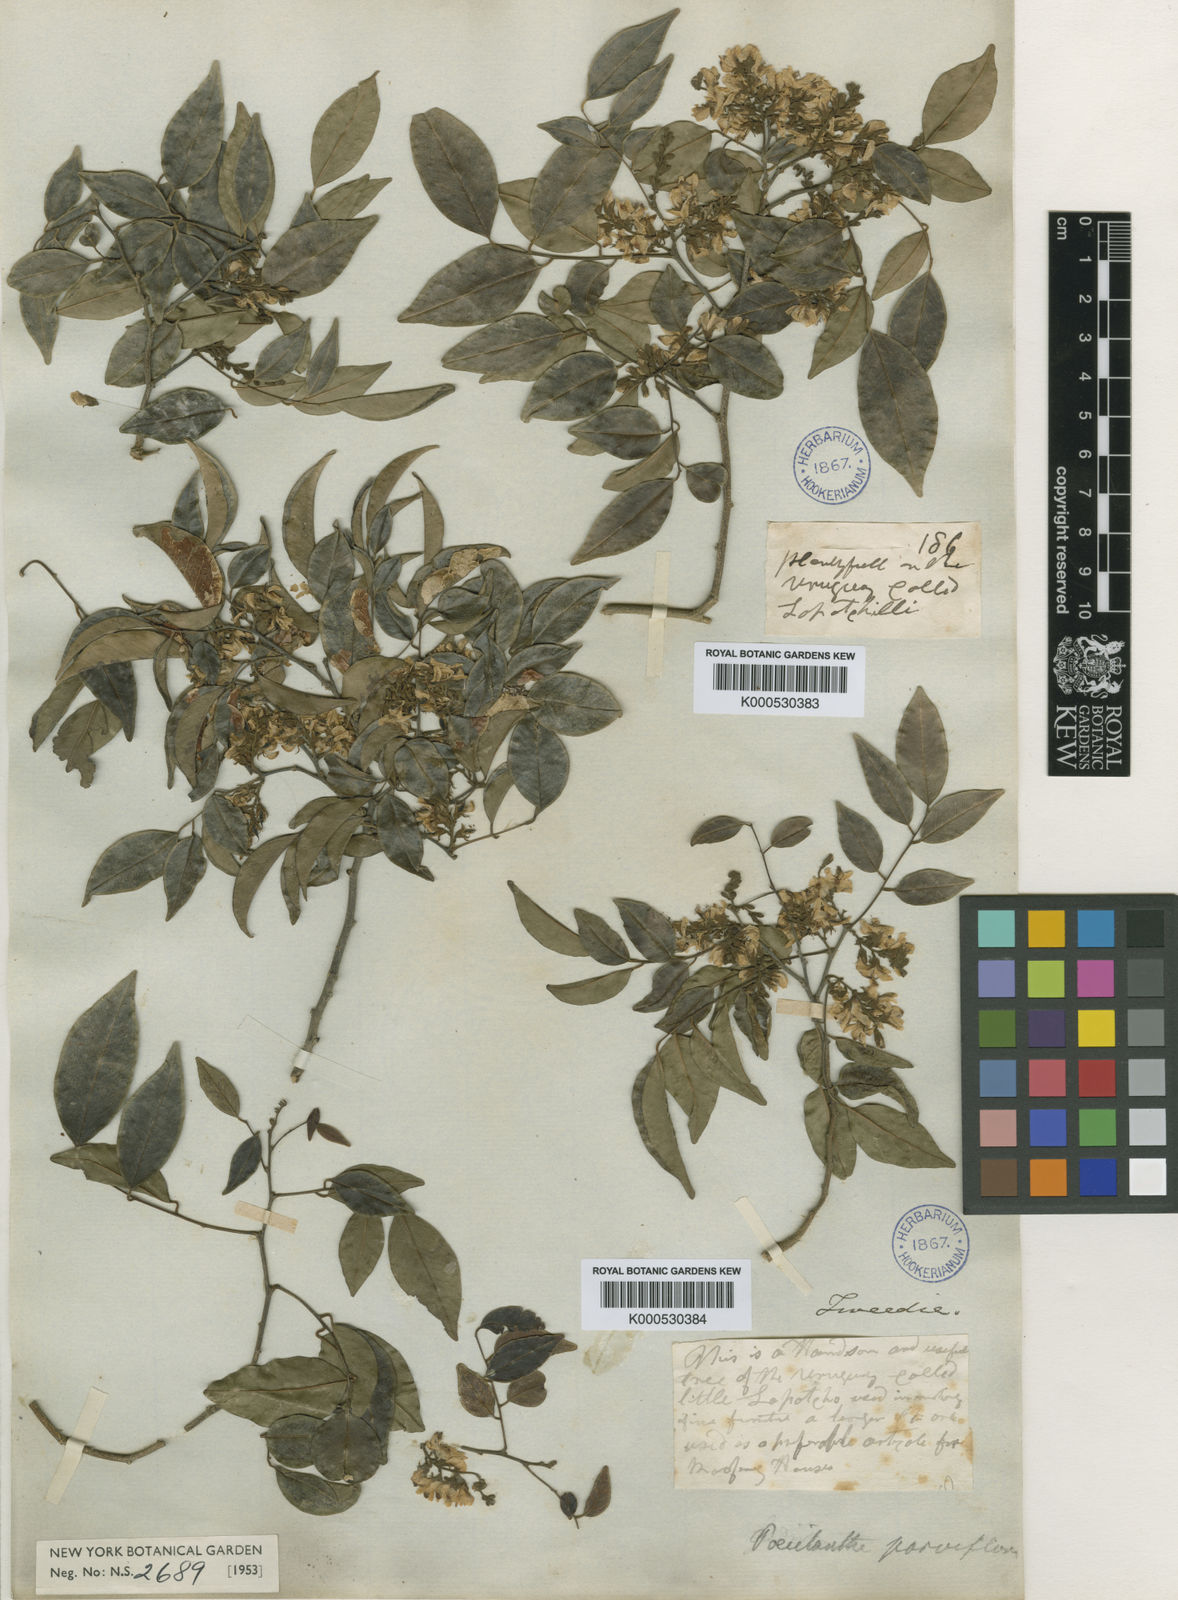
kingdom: Plantae
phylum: Tracheophyta
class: Magnoliopsida
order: Fabales
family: Fabaceae
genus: Poecilanthe
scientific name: Poecilanthe parviflora
